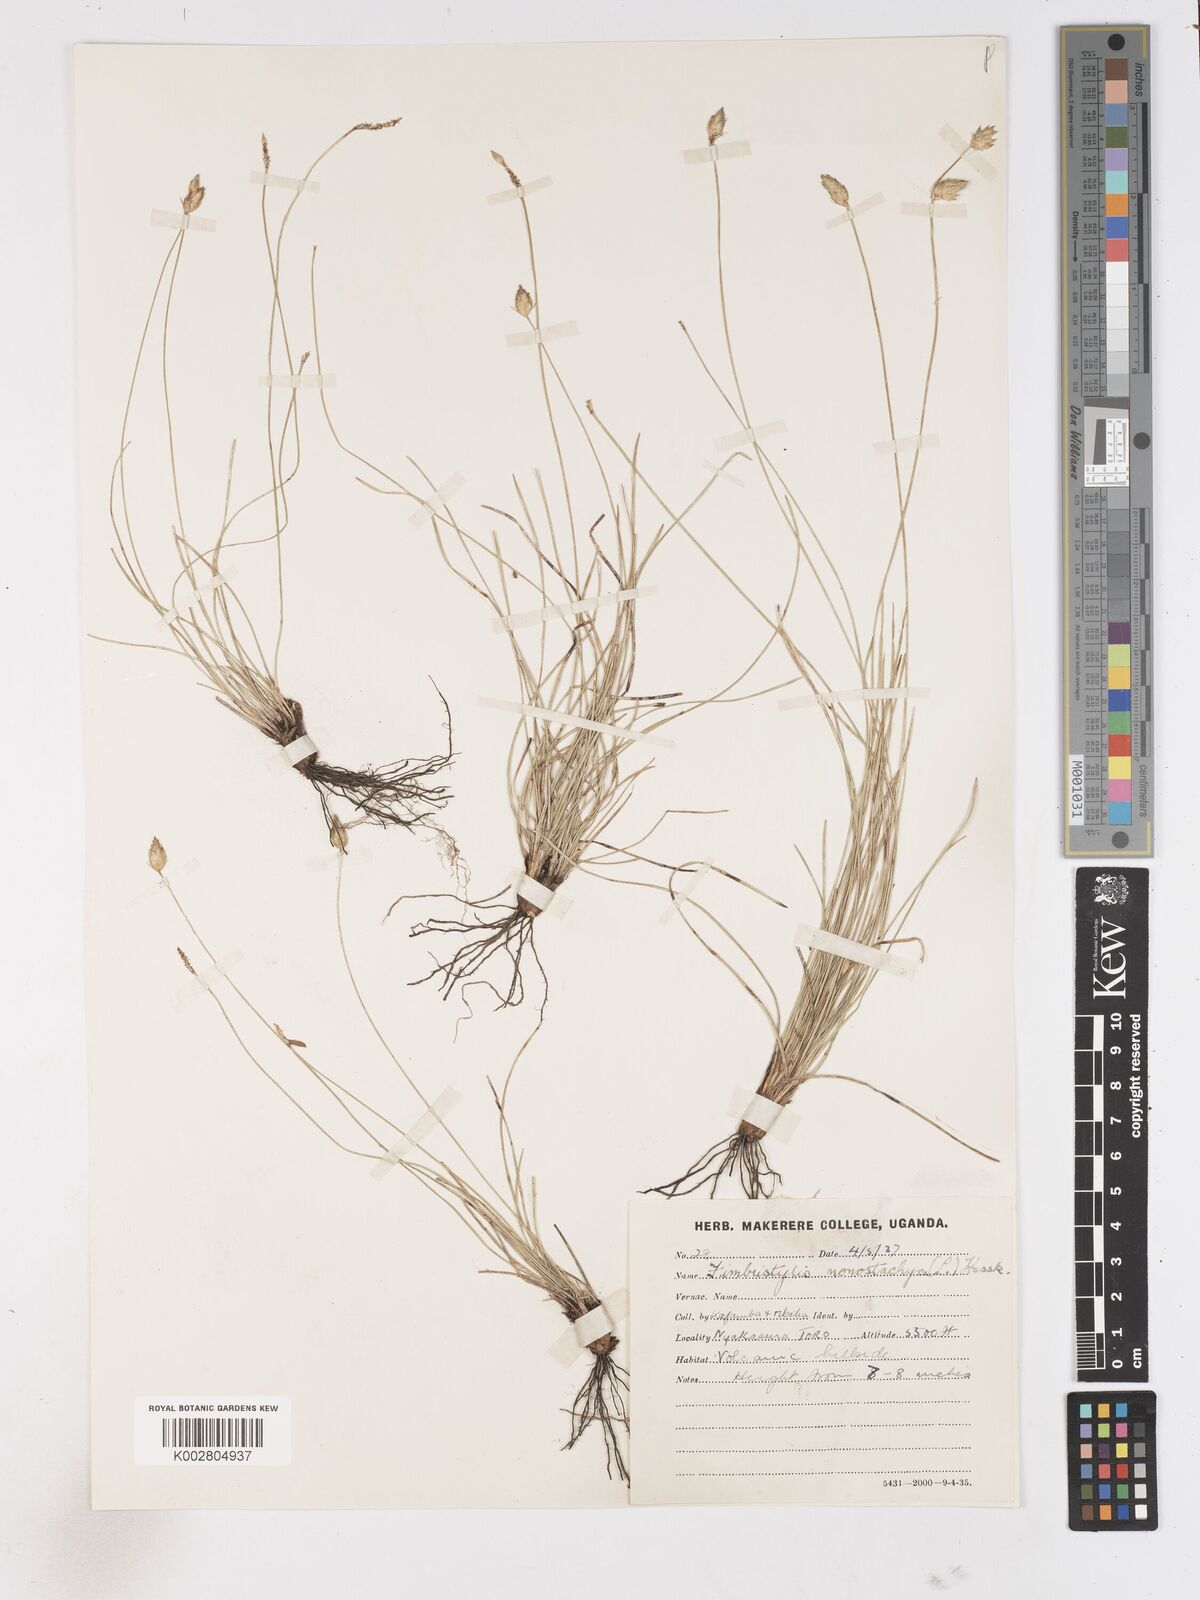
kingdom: Plantae
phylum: Tracheophyta
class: Liliopsida
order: Poales
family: Cyperaceae
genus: Abildgaardia
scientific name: Abildgaardia ovata
